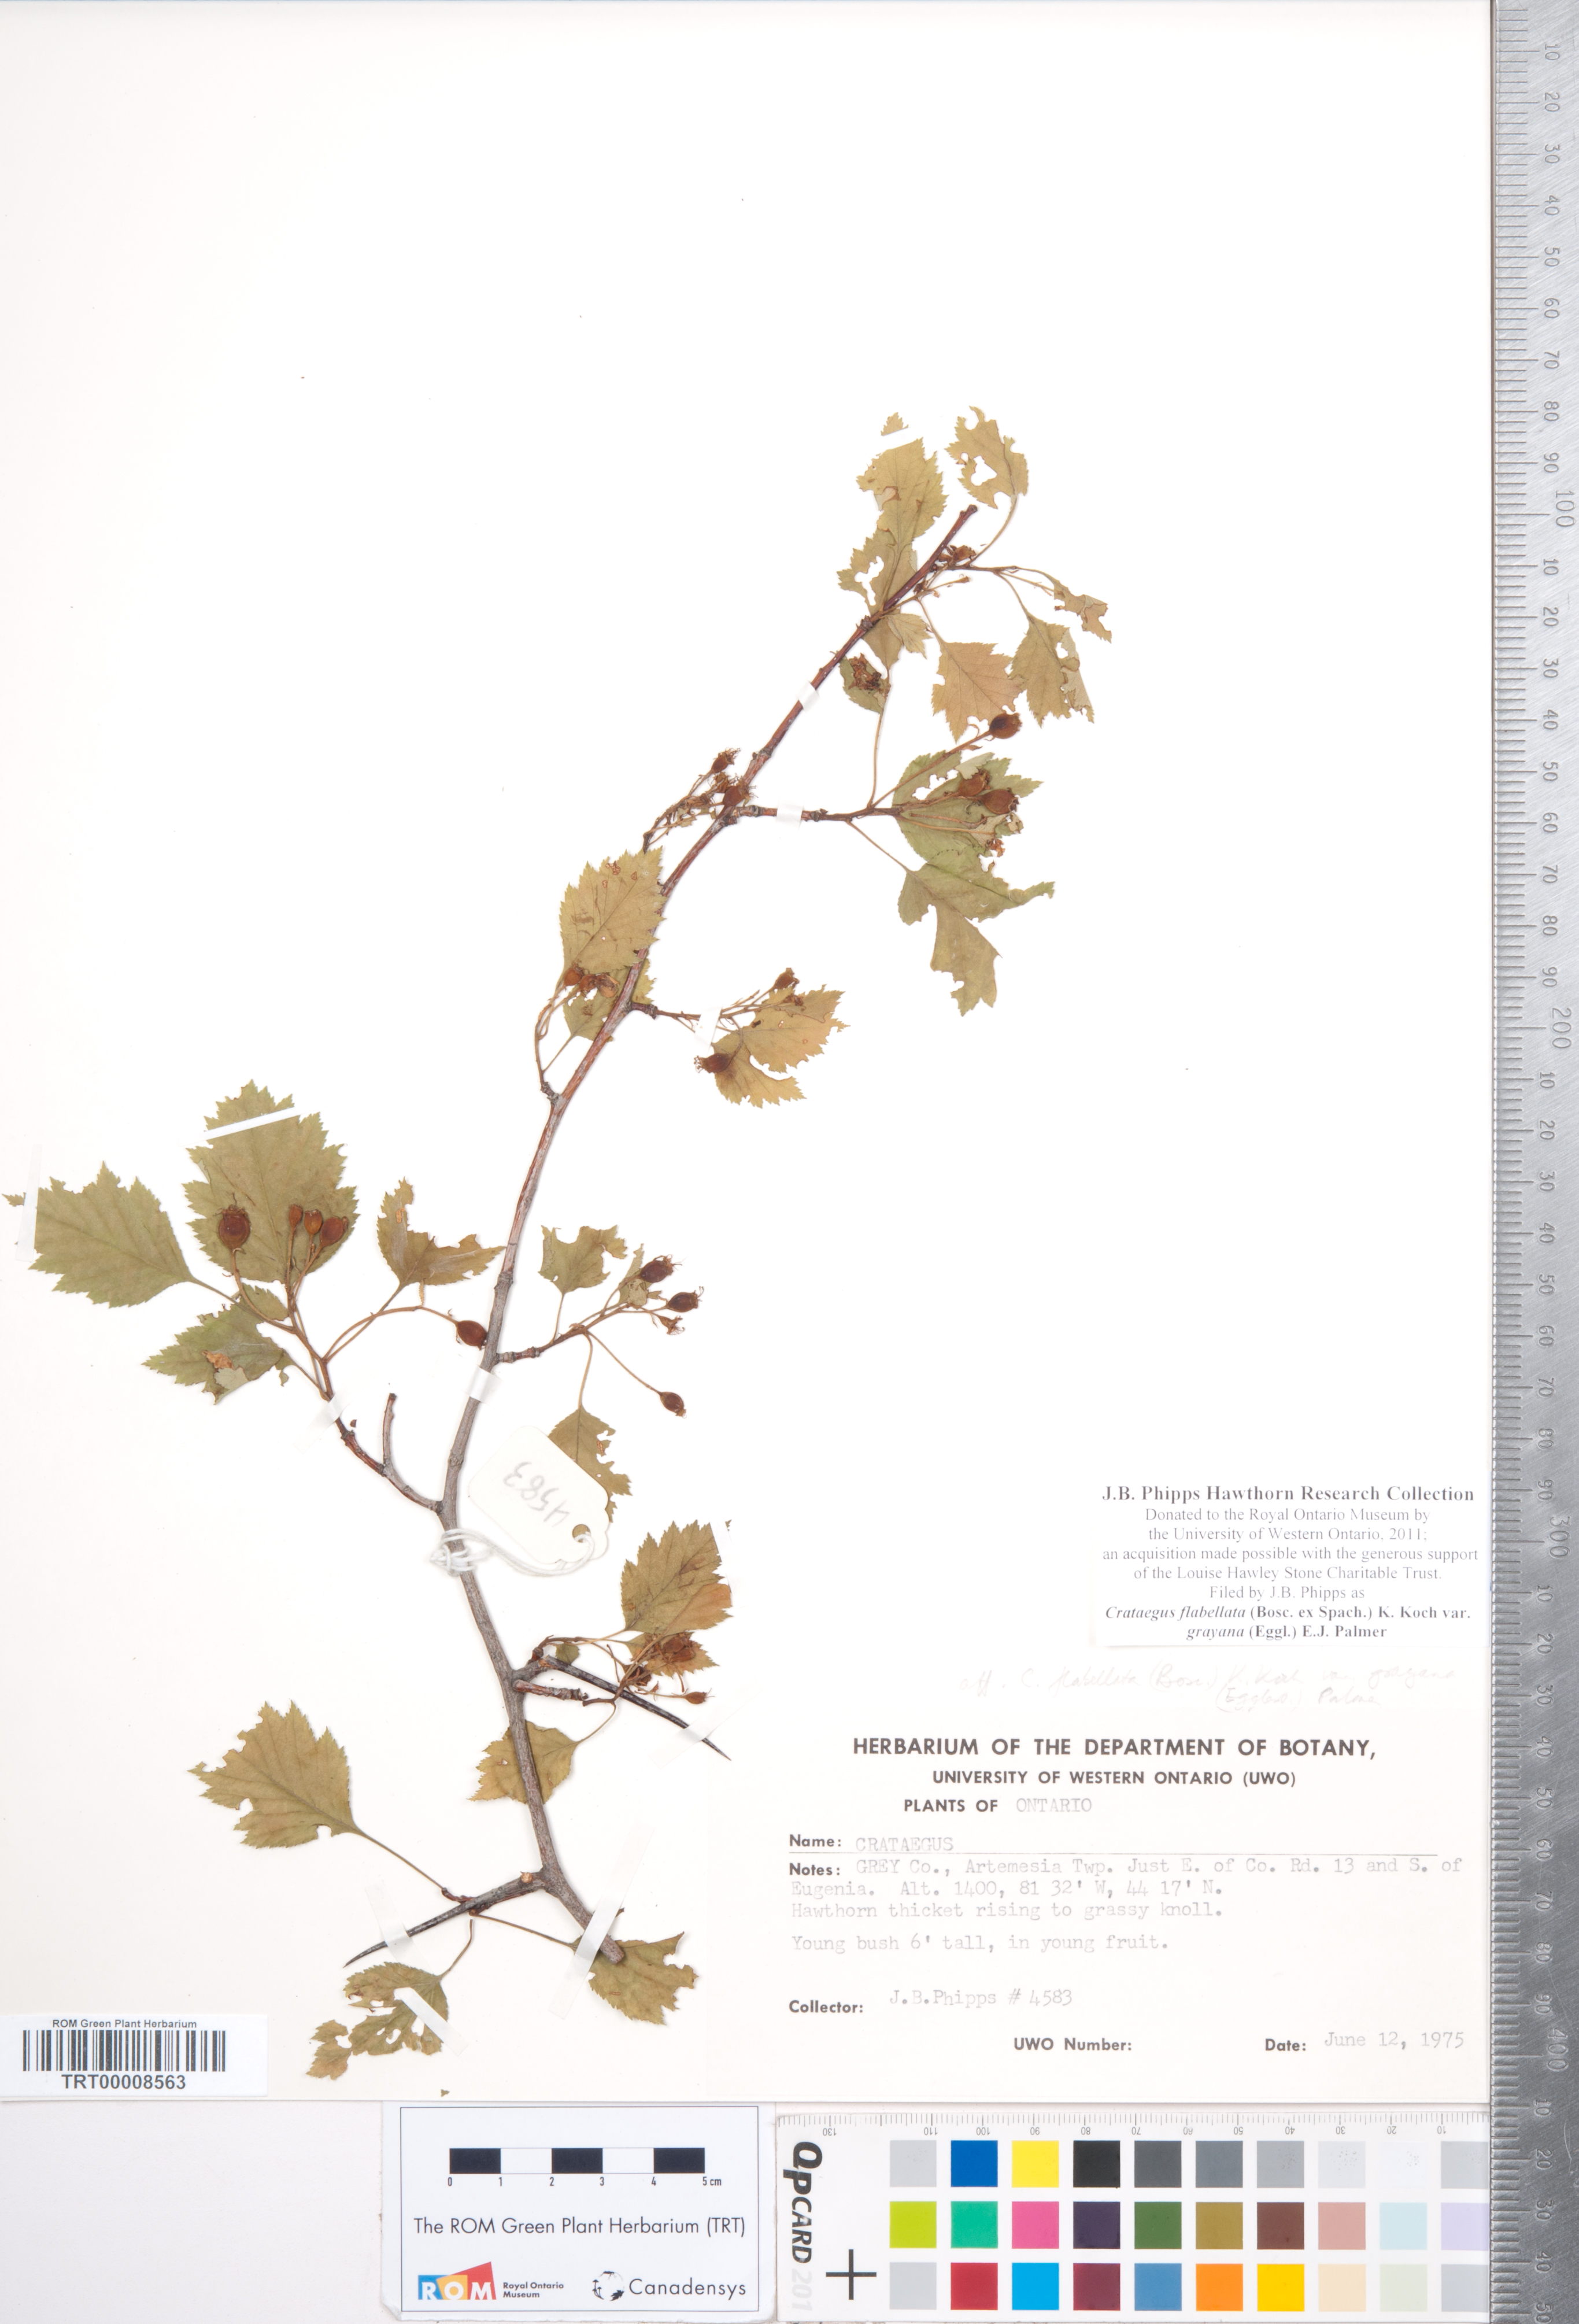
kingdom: Plantae
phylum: Tracheophyta
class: Magnoliopsida
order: Rosales
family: Rosaceae
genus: Crataegus
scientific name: Crataegus flabellata
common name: Bosc's hawthorn
